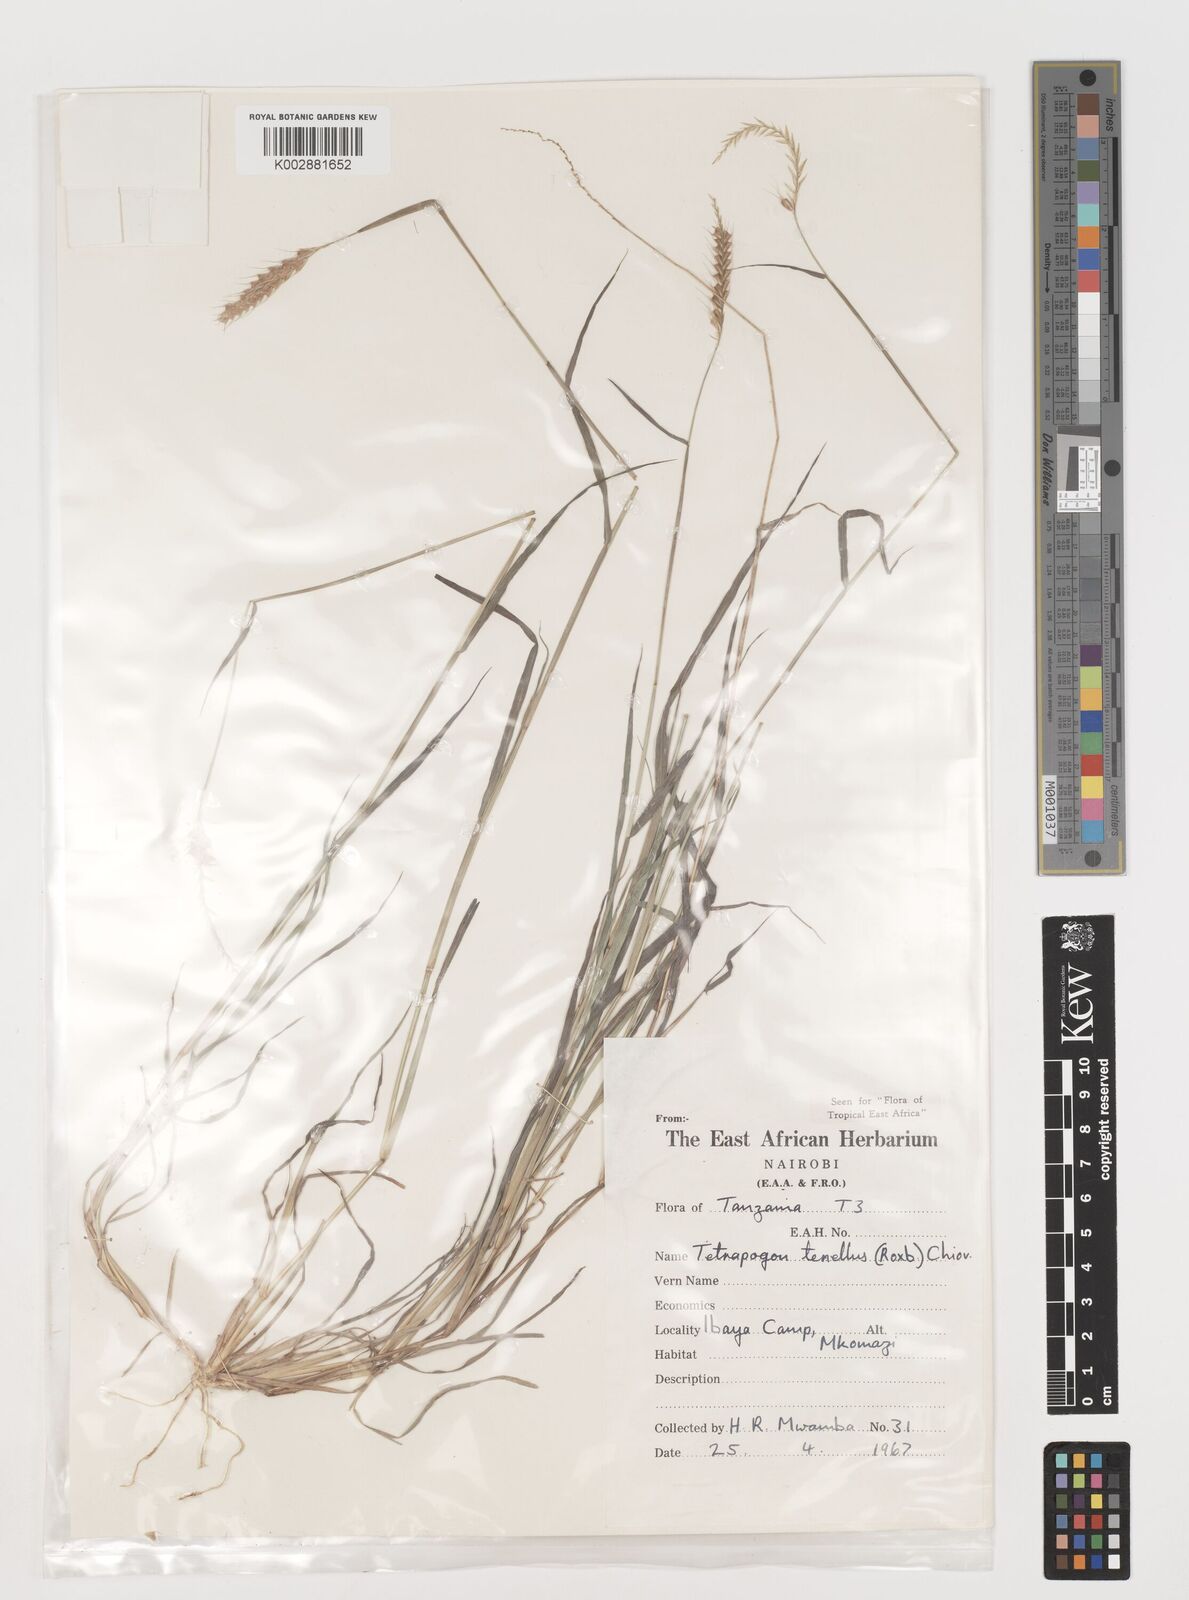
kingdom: Plantae
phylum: Tracheophyta
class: Liliopsida
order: Poales
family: Poaceae
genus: Tetrapogon
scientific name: Tetrapogon tenellus
